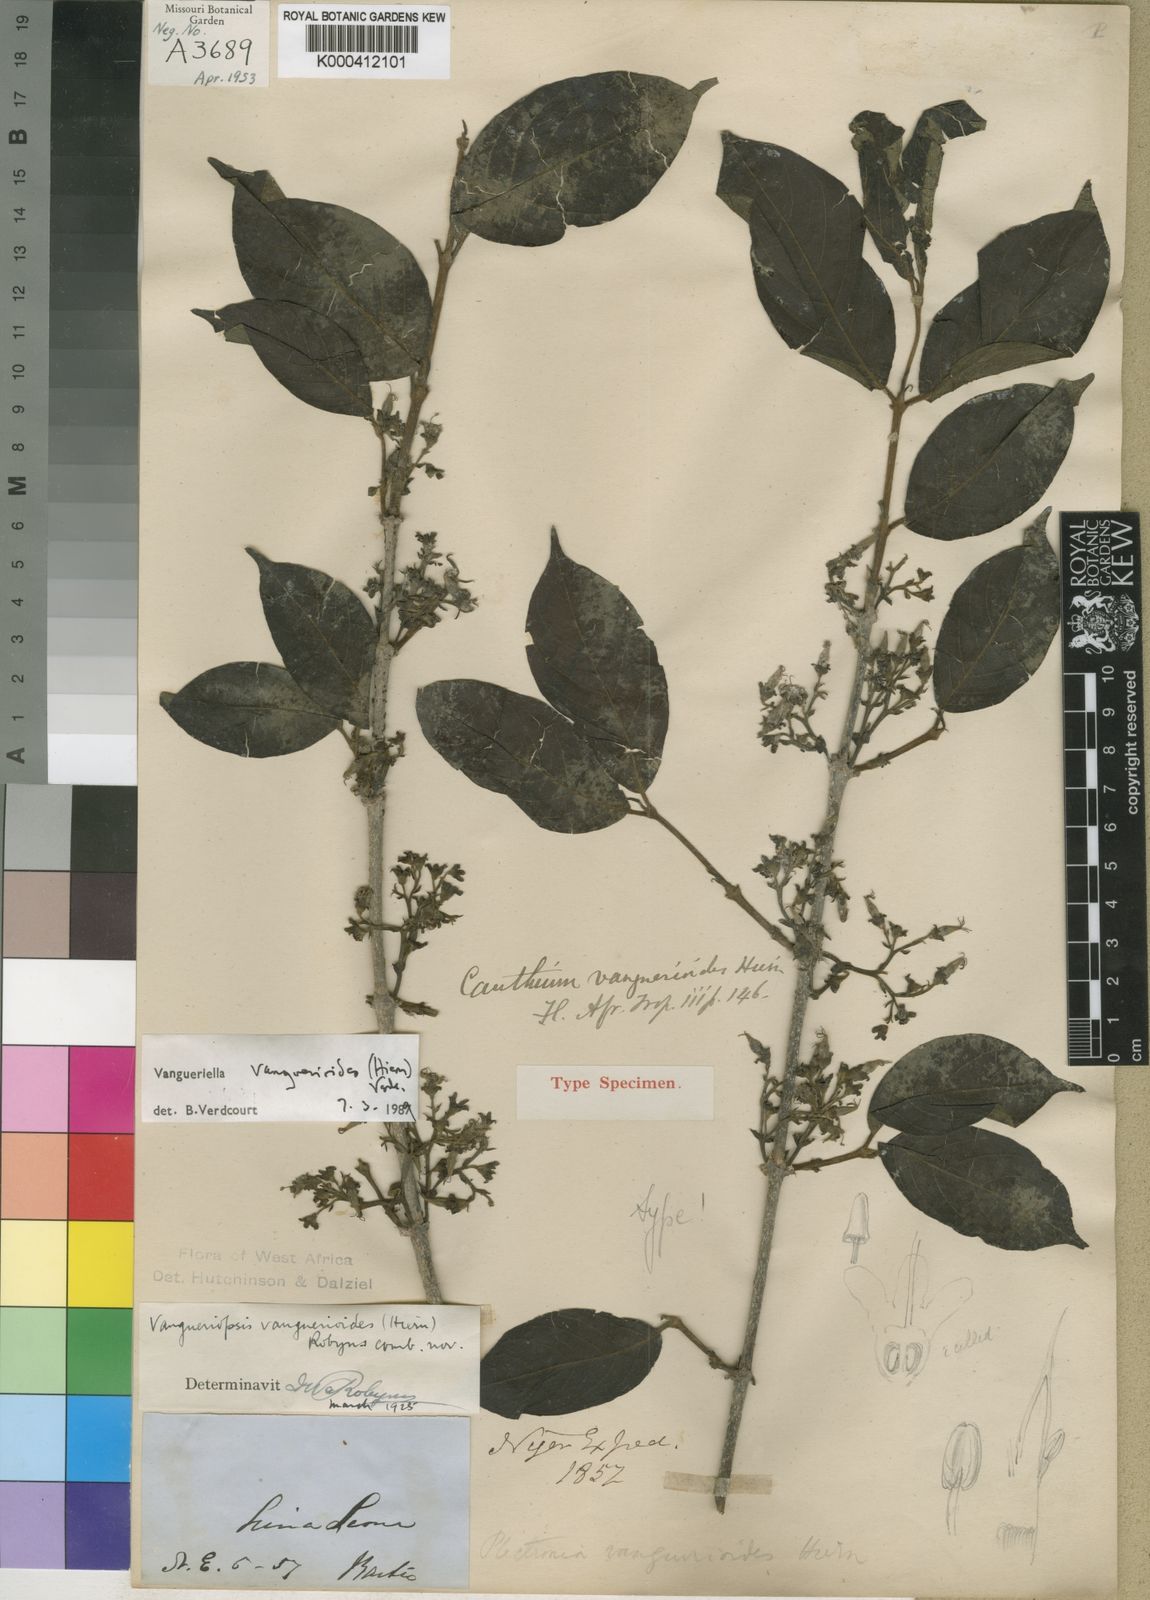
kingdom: Plantae
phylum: Tracheophyta
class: Magnoliopsida
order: Gentianales
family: Rubiaceae
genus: Vangueriella
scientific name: Vangueriella vanguerioides
